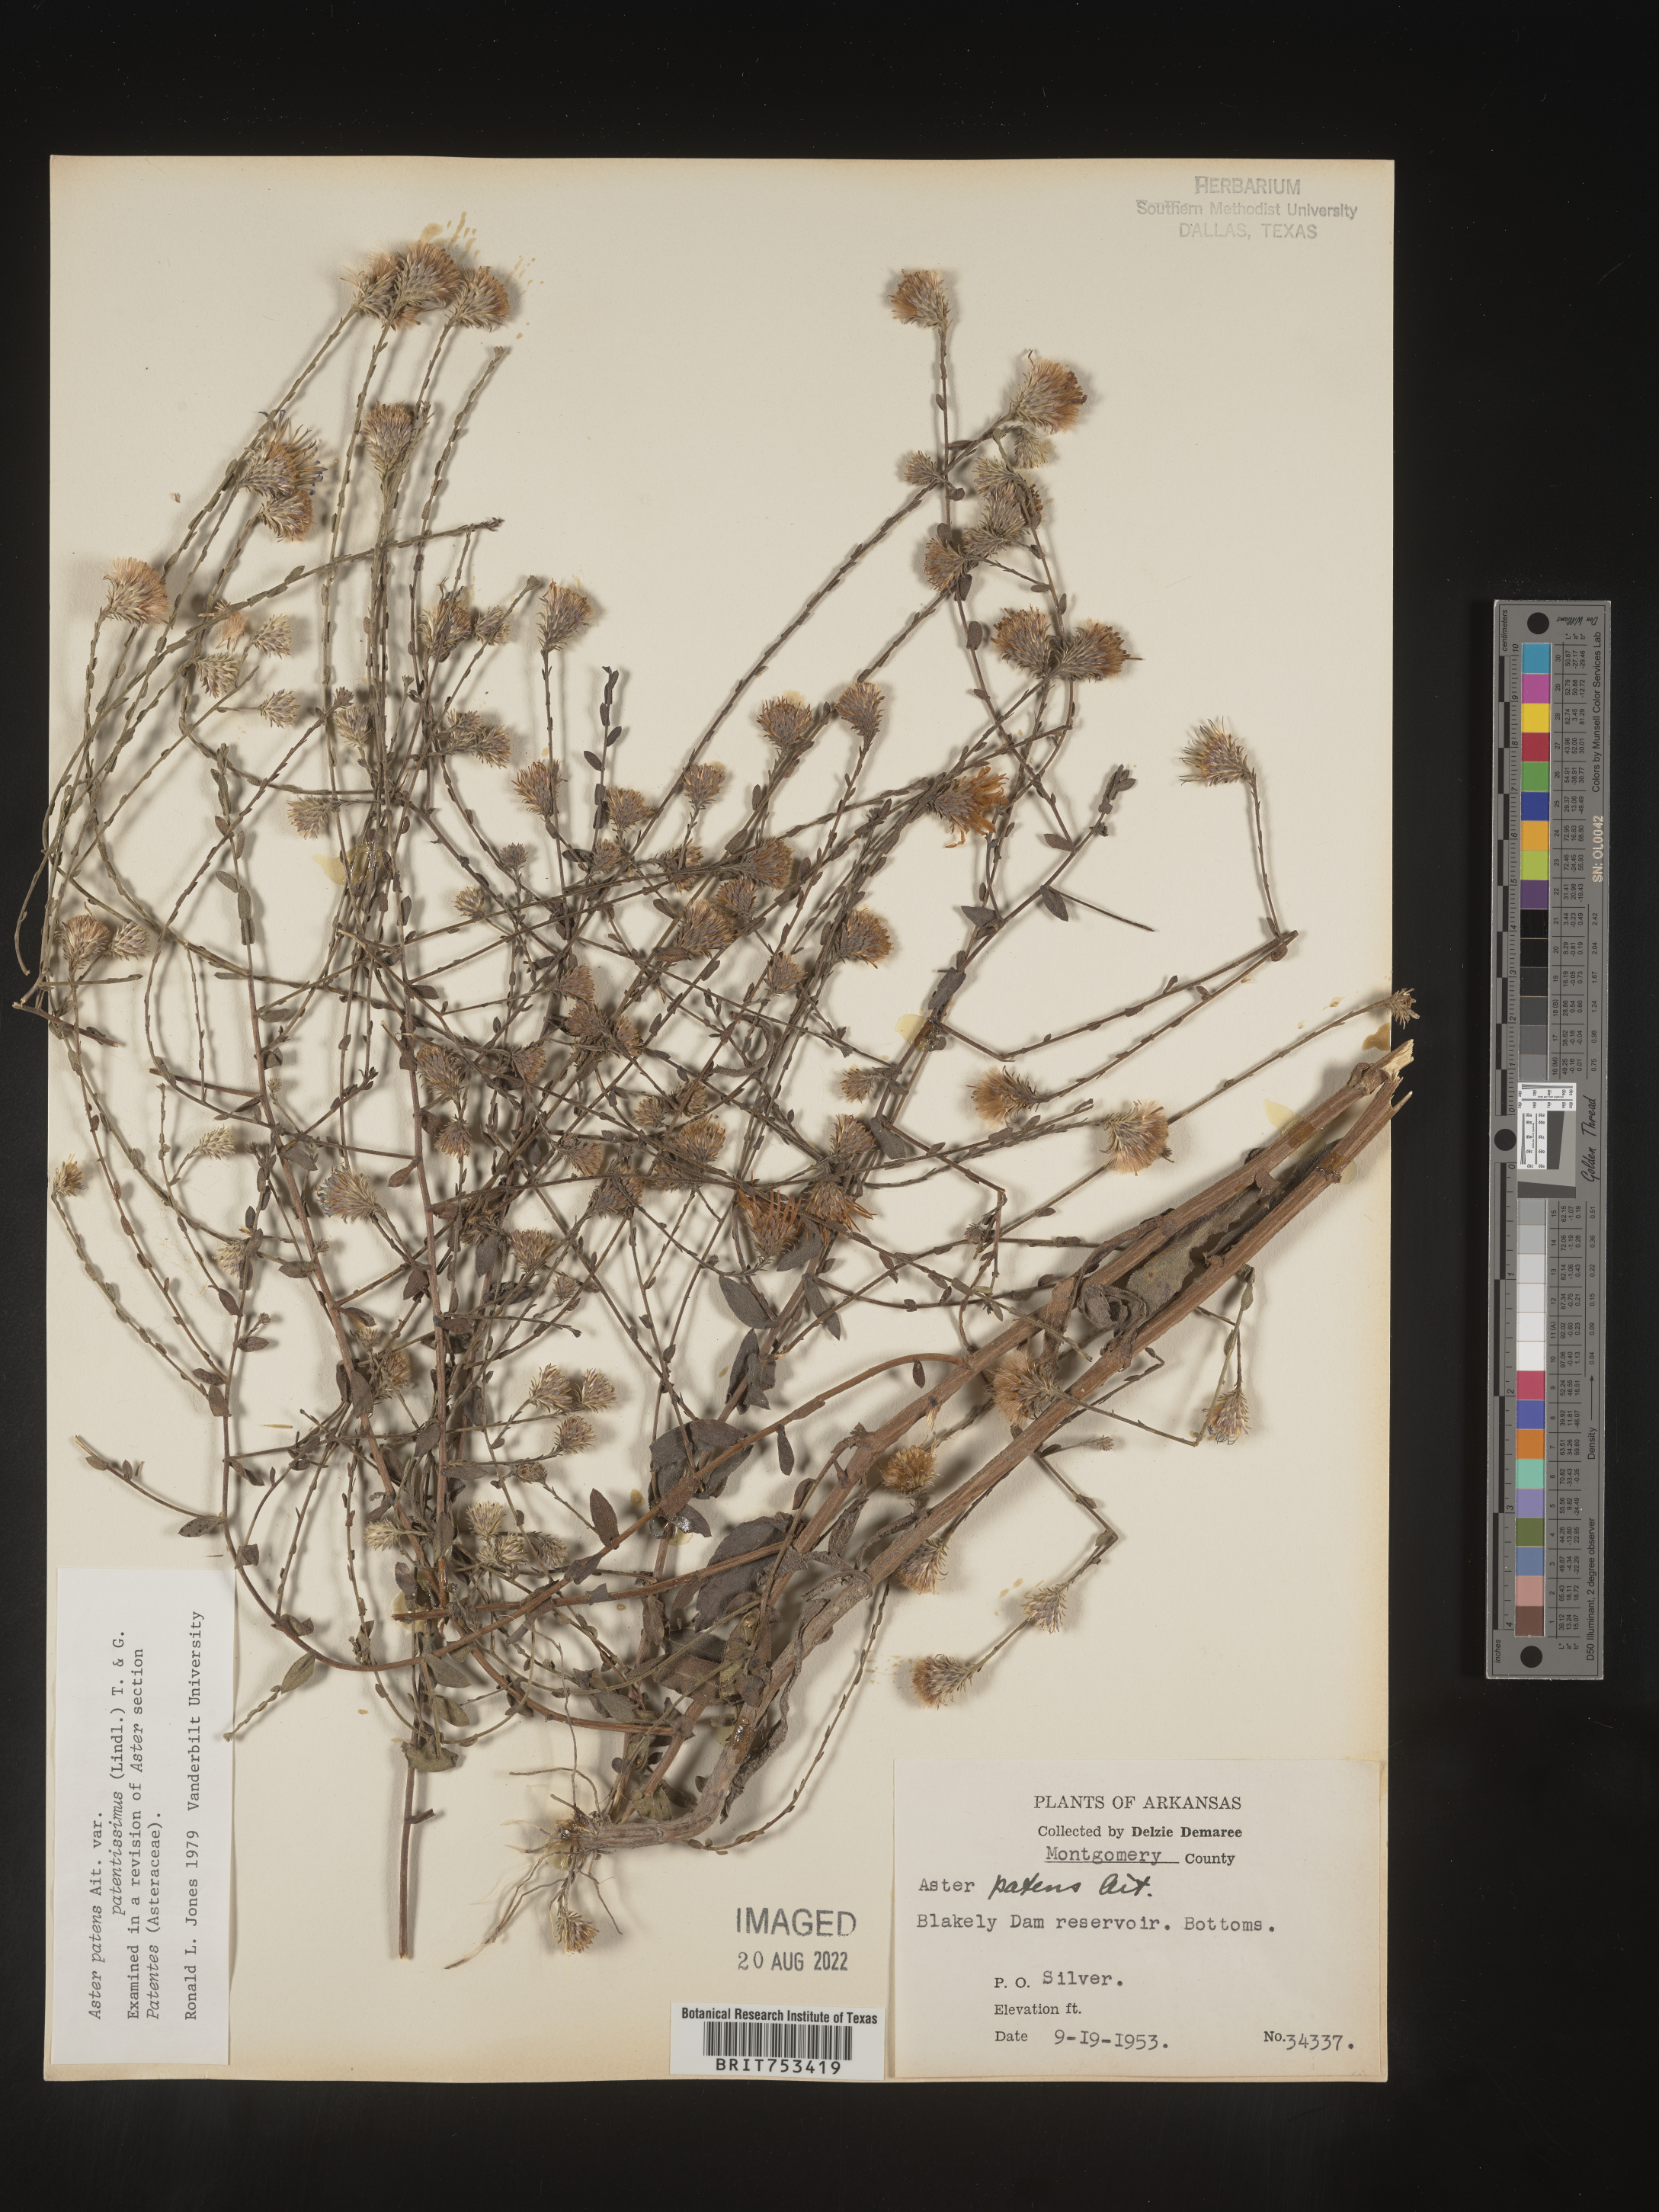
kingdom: Plantae
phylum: Tracheophyta
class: Magnoliopsida
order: Asterales
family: Asteraceae
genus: Symphyotrichum
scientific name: Symphyotrichum patens
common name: Late purple aster
